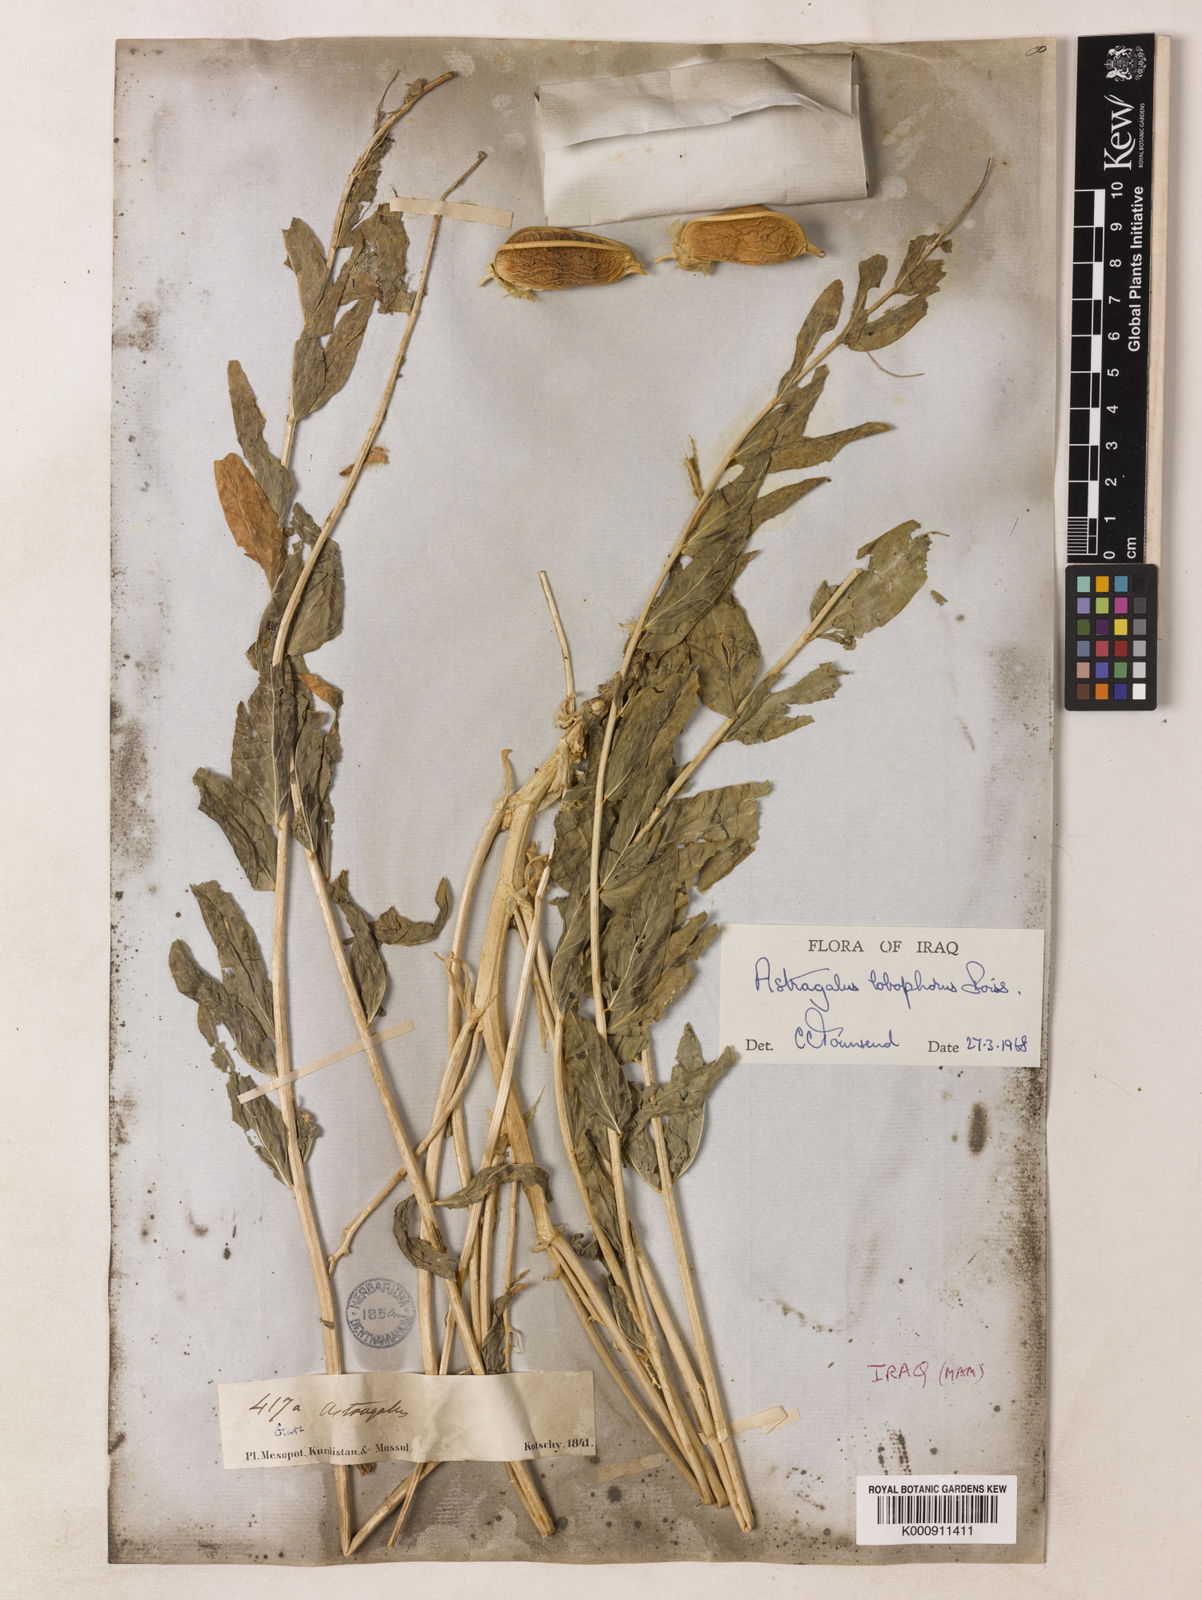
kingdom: Plantae
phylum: Tracheophyta
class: Magnoliopsida
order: Fabales
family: Fabaceae
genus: Astragalus
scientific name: Astragalus ovinus
